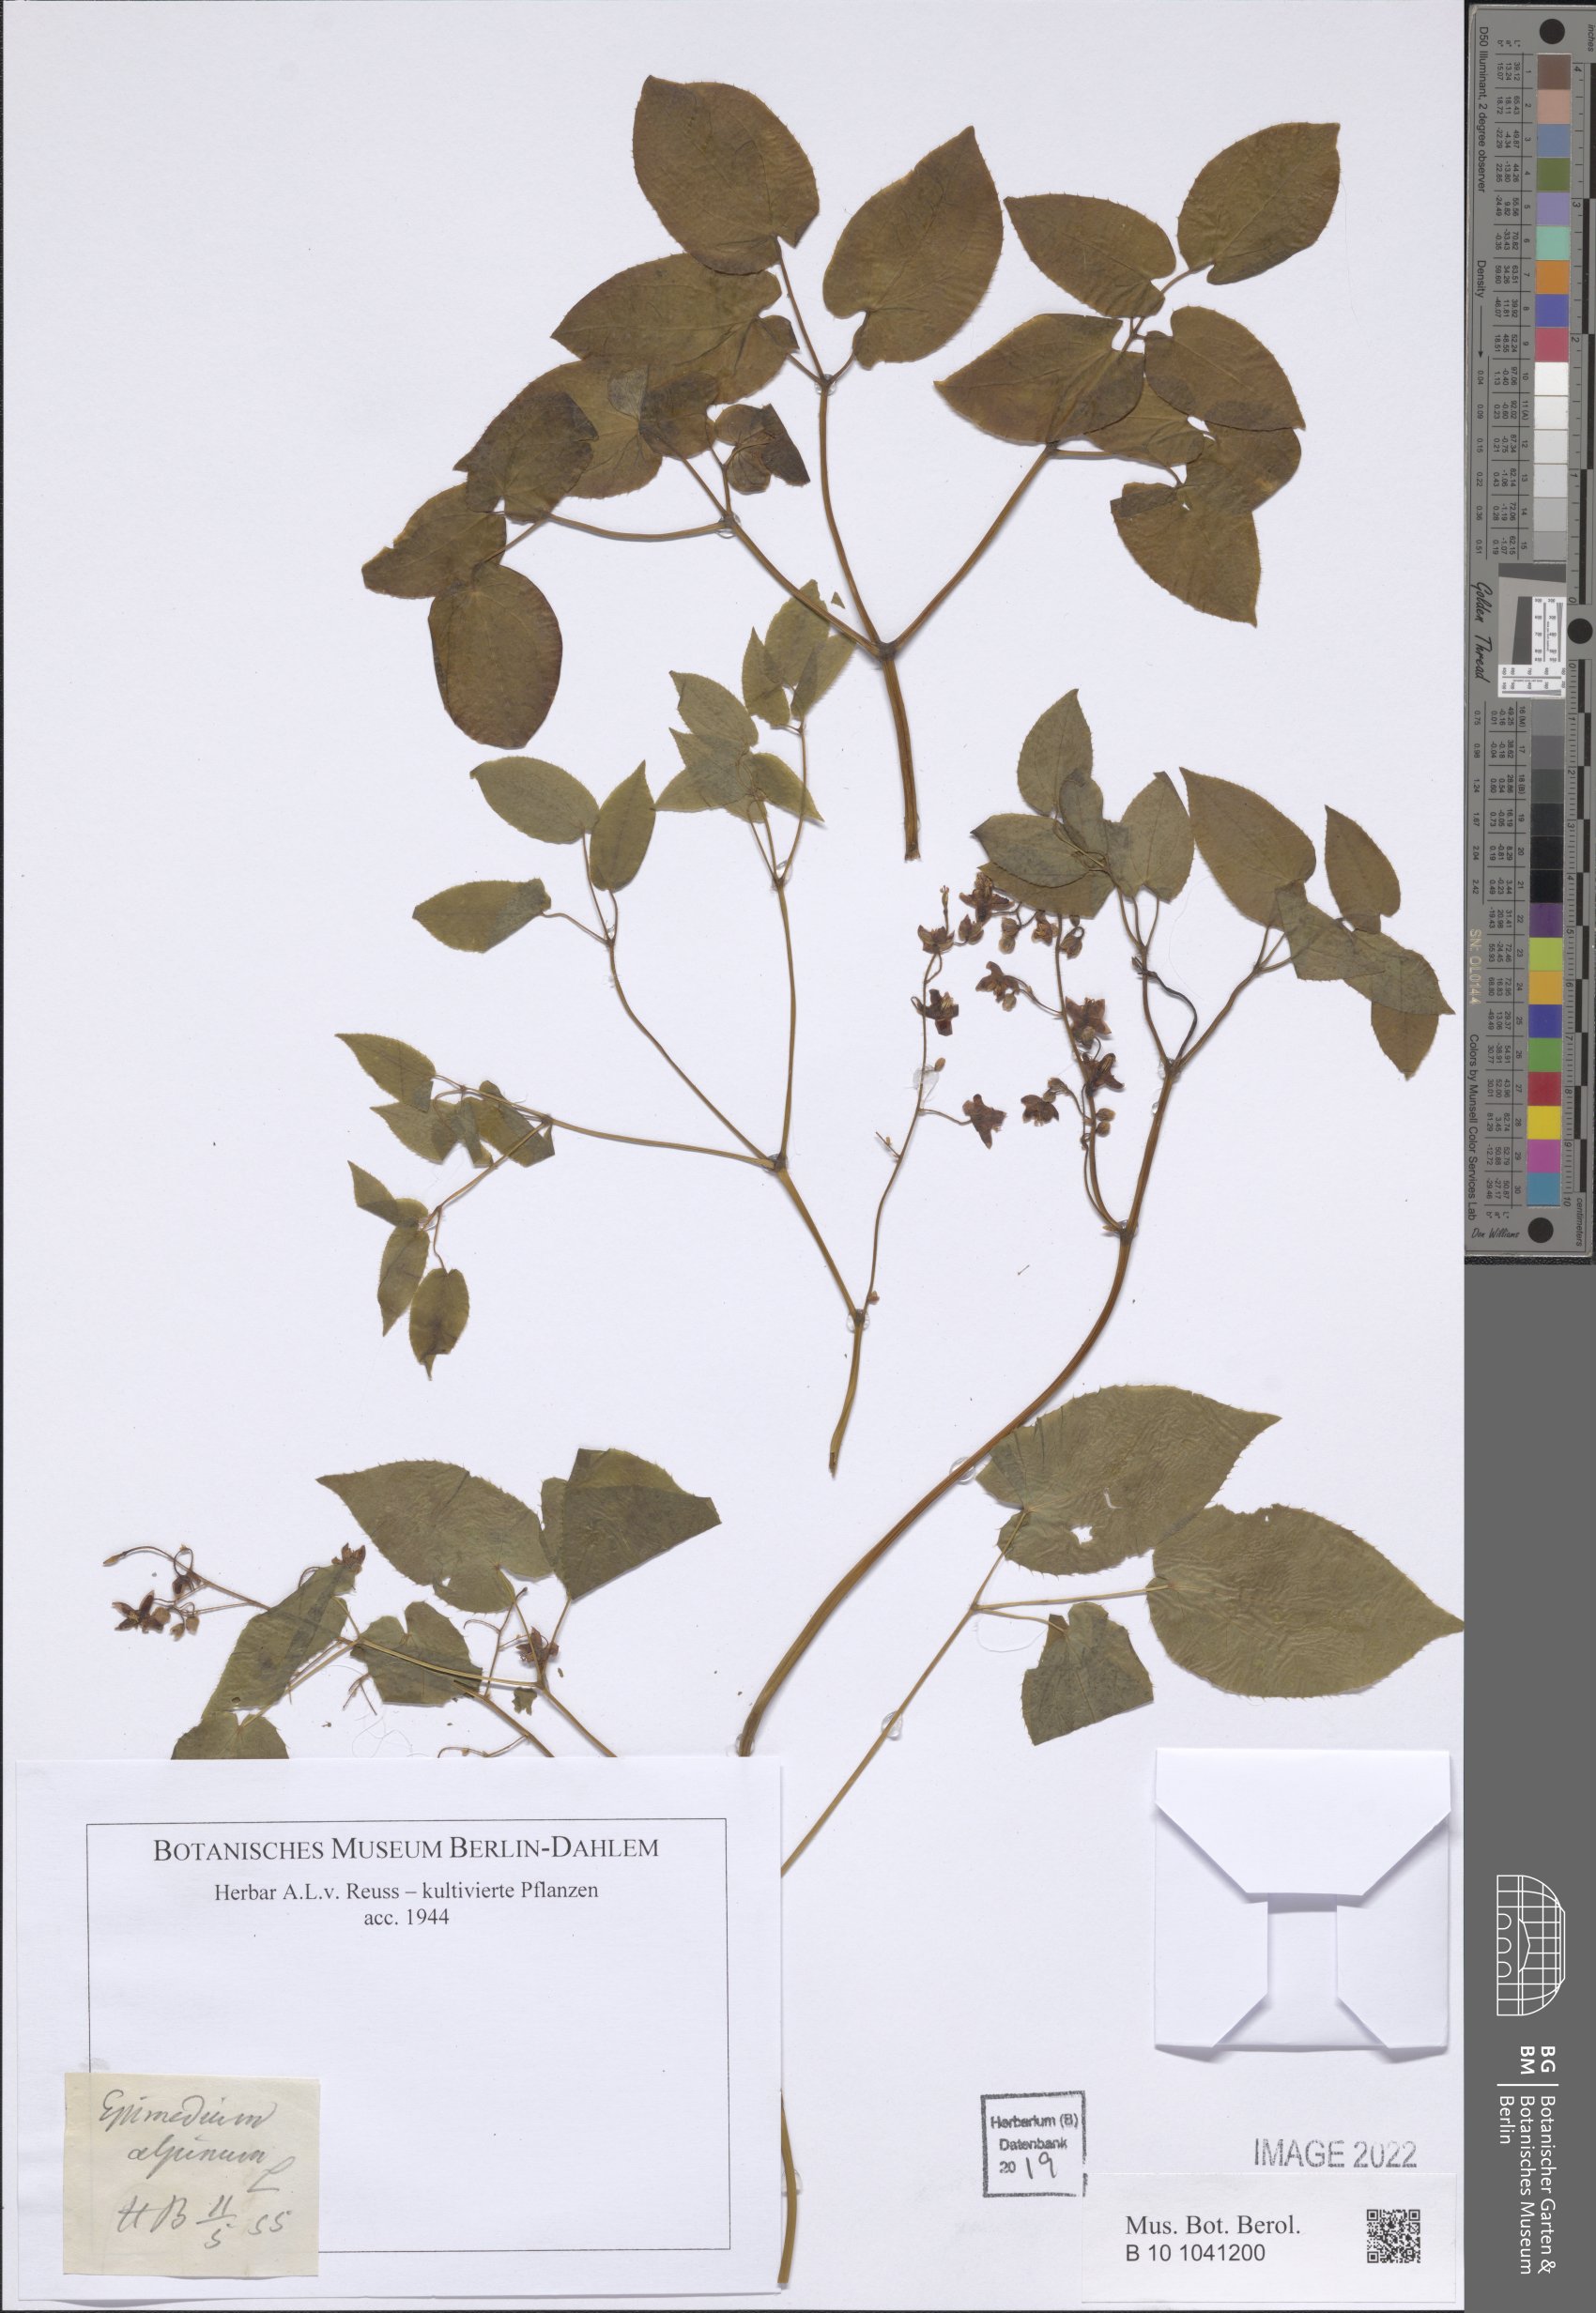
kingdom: Plantae
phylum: Tracheophyta
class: Magnoliopsida
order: Ranunculales
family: Berberidaceae
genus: Epimedium
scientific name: Epimedium alpinum
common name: Barrenwort
